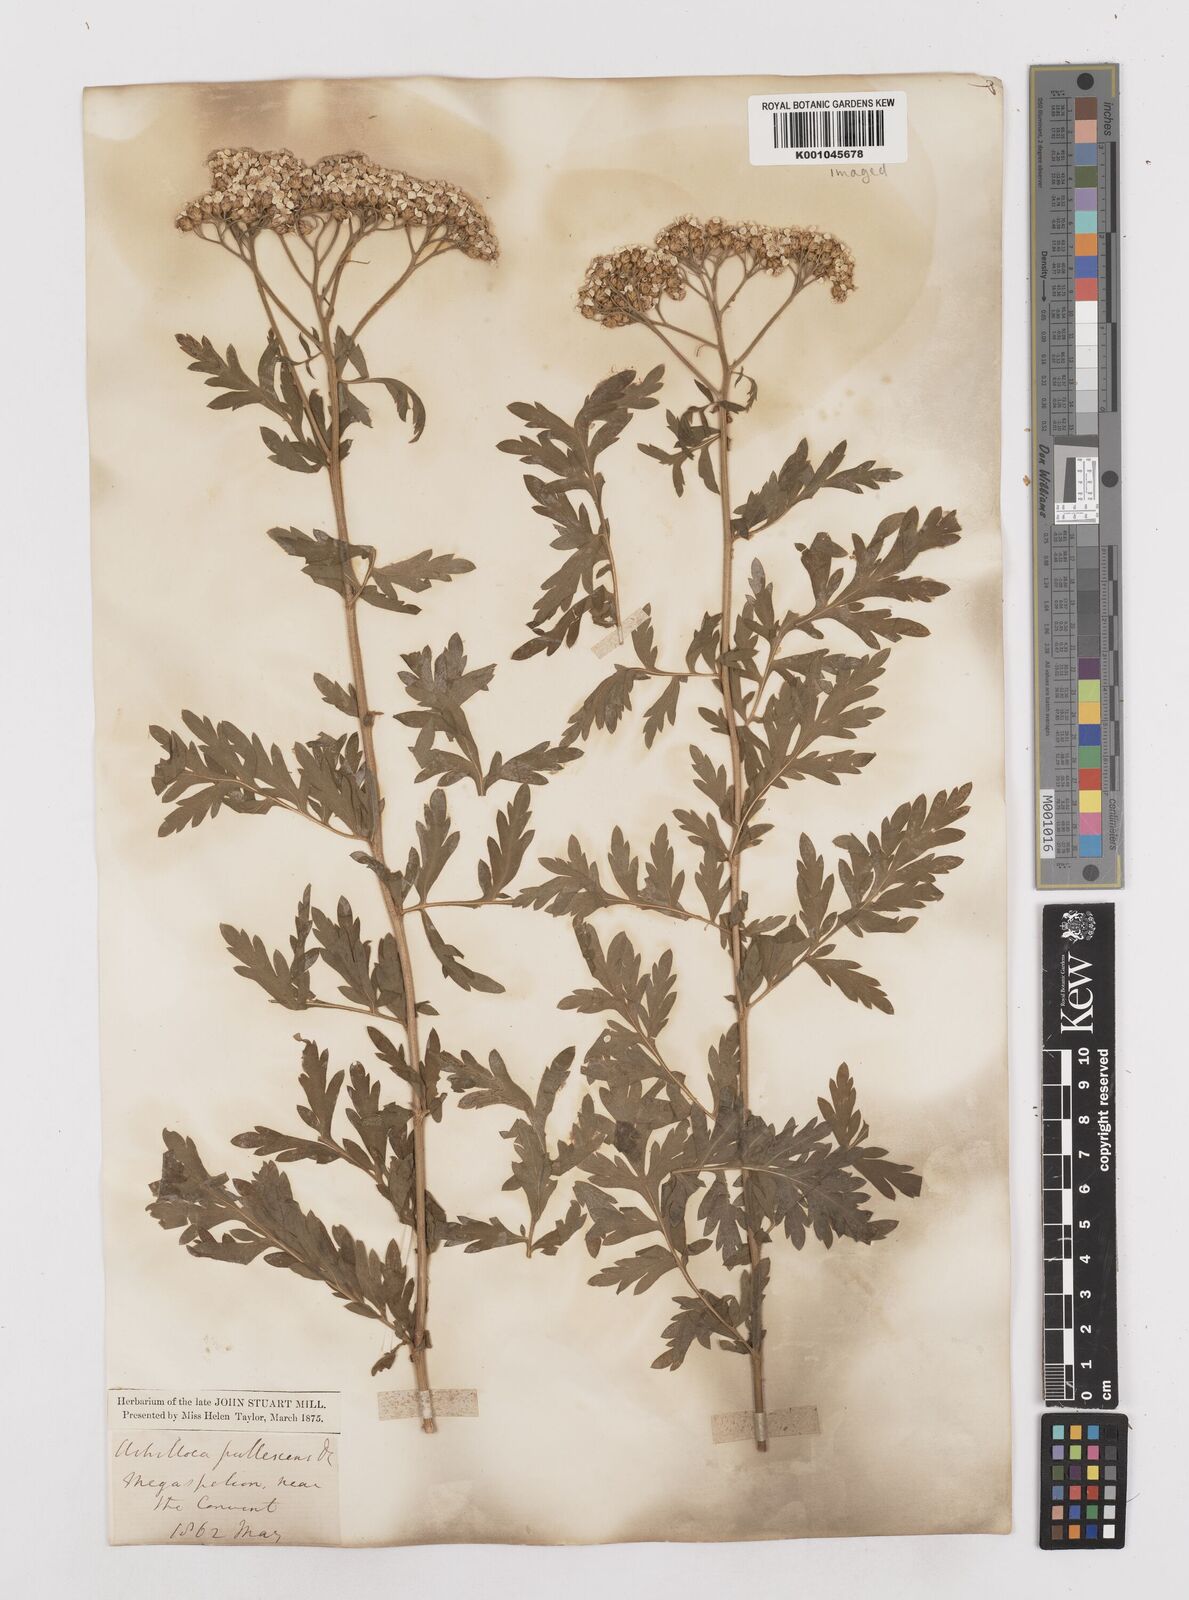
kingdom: Plantae
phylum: Tracheophyta
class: Magnoliopsida
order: Asterales
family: Asteraceae
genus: Achillea
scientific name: Achillea ptarmica
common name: Sneezeweed
